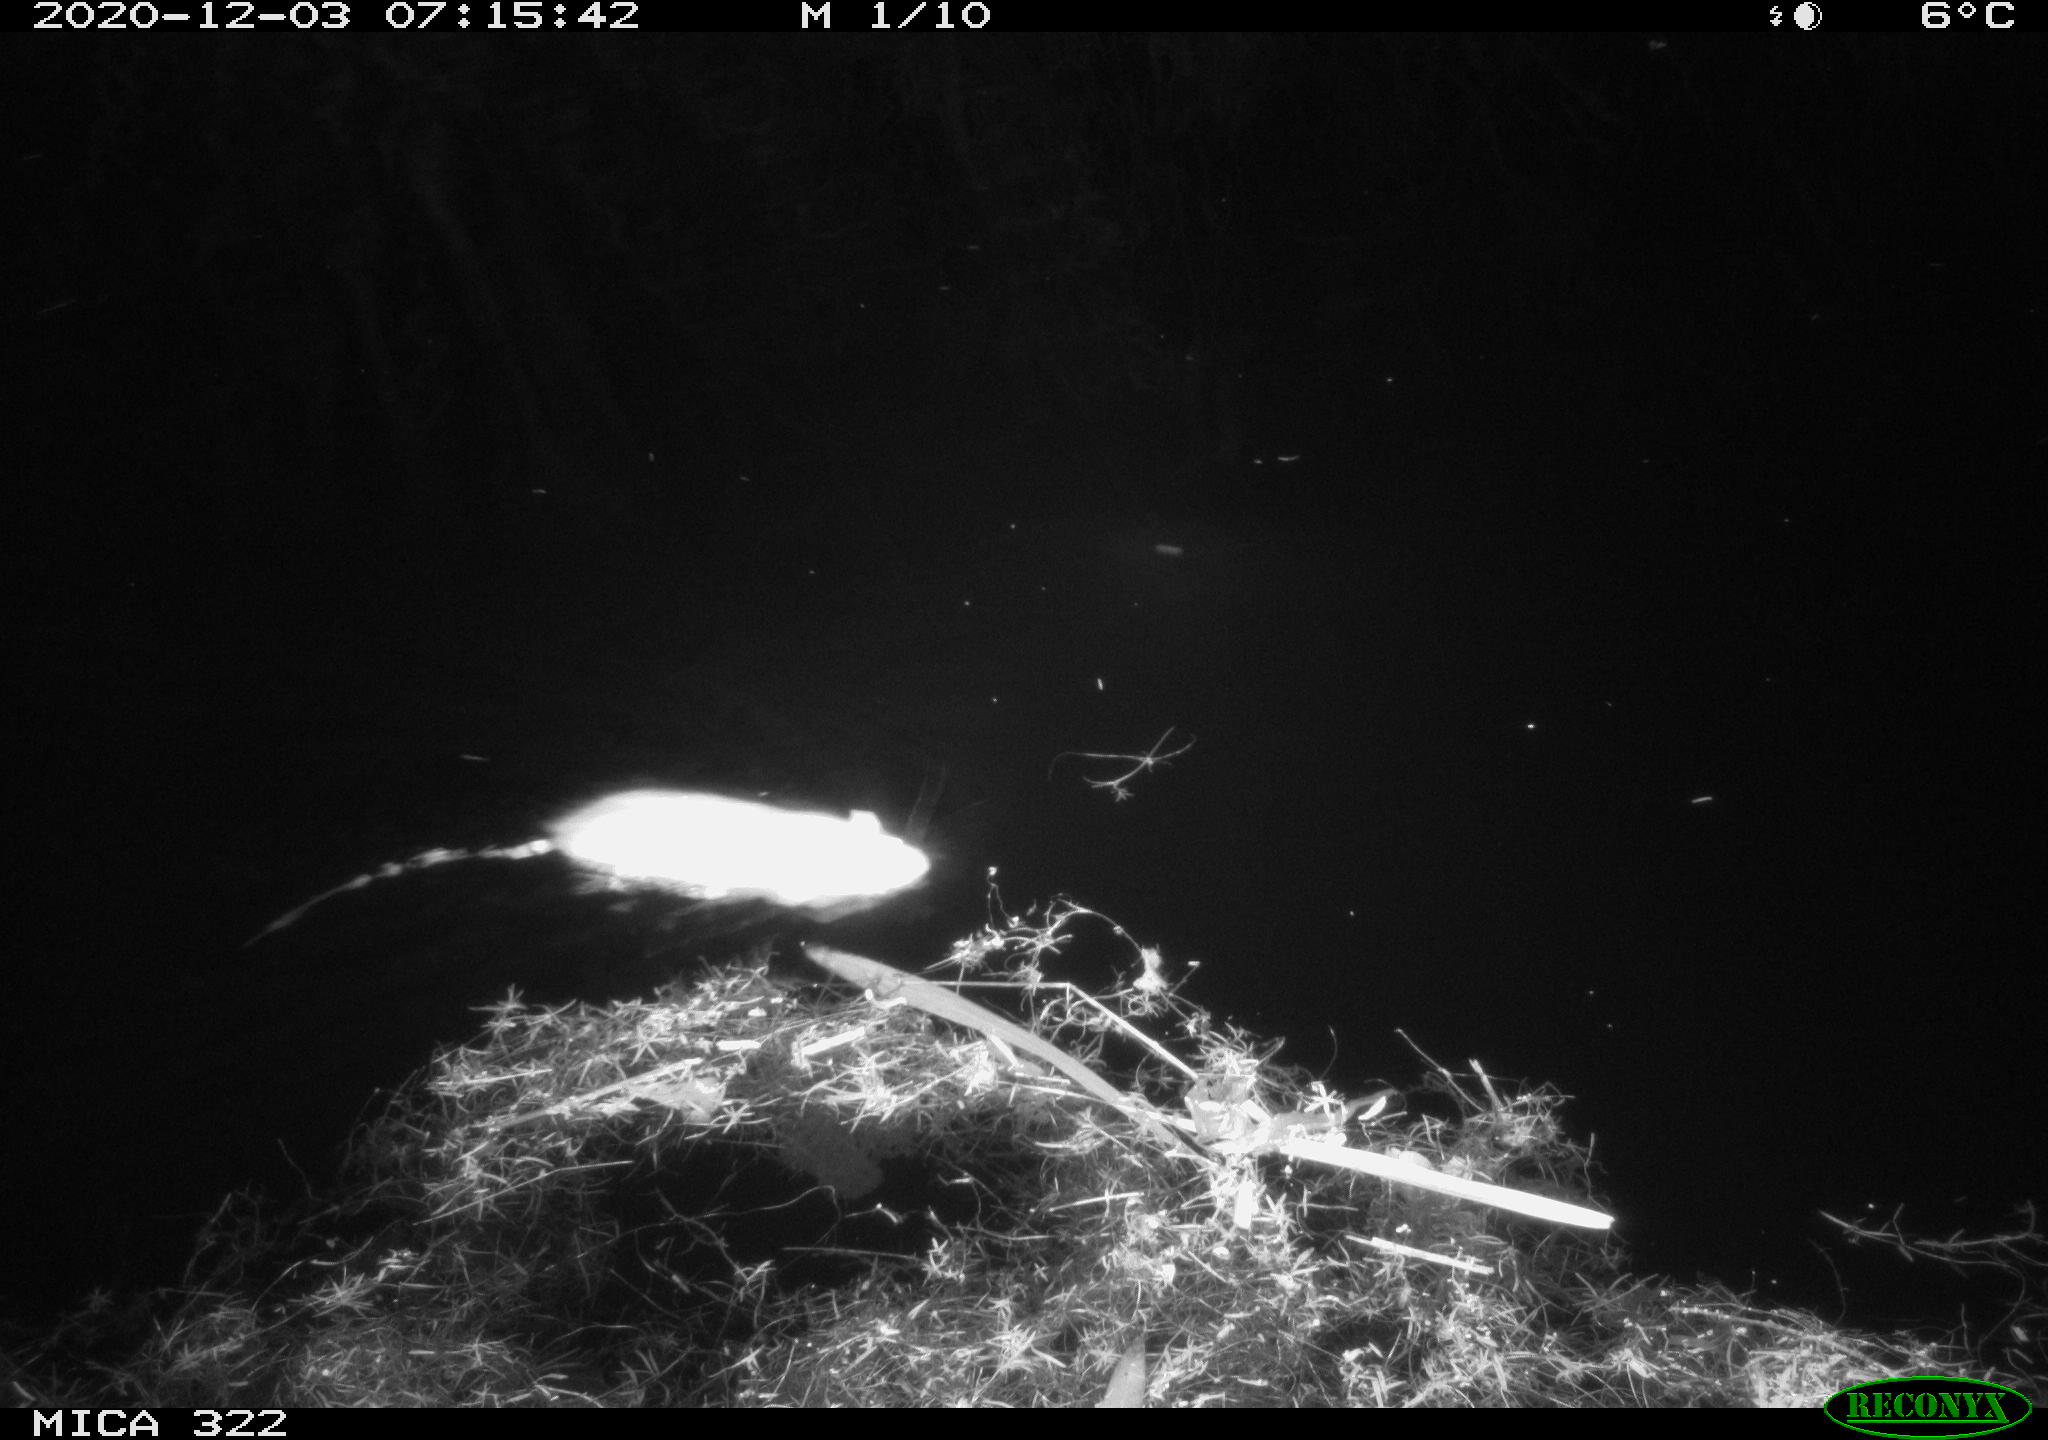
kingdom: Animalia
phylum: Chordata
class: Mammalia
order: Rodentia
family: Muridae
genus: Rattus
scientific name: Rattus norvegicus
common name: Brown rat
